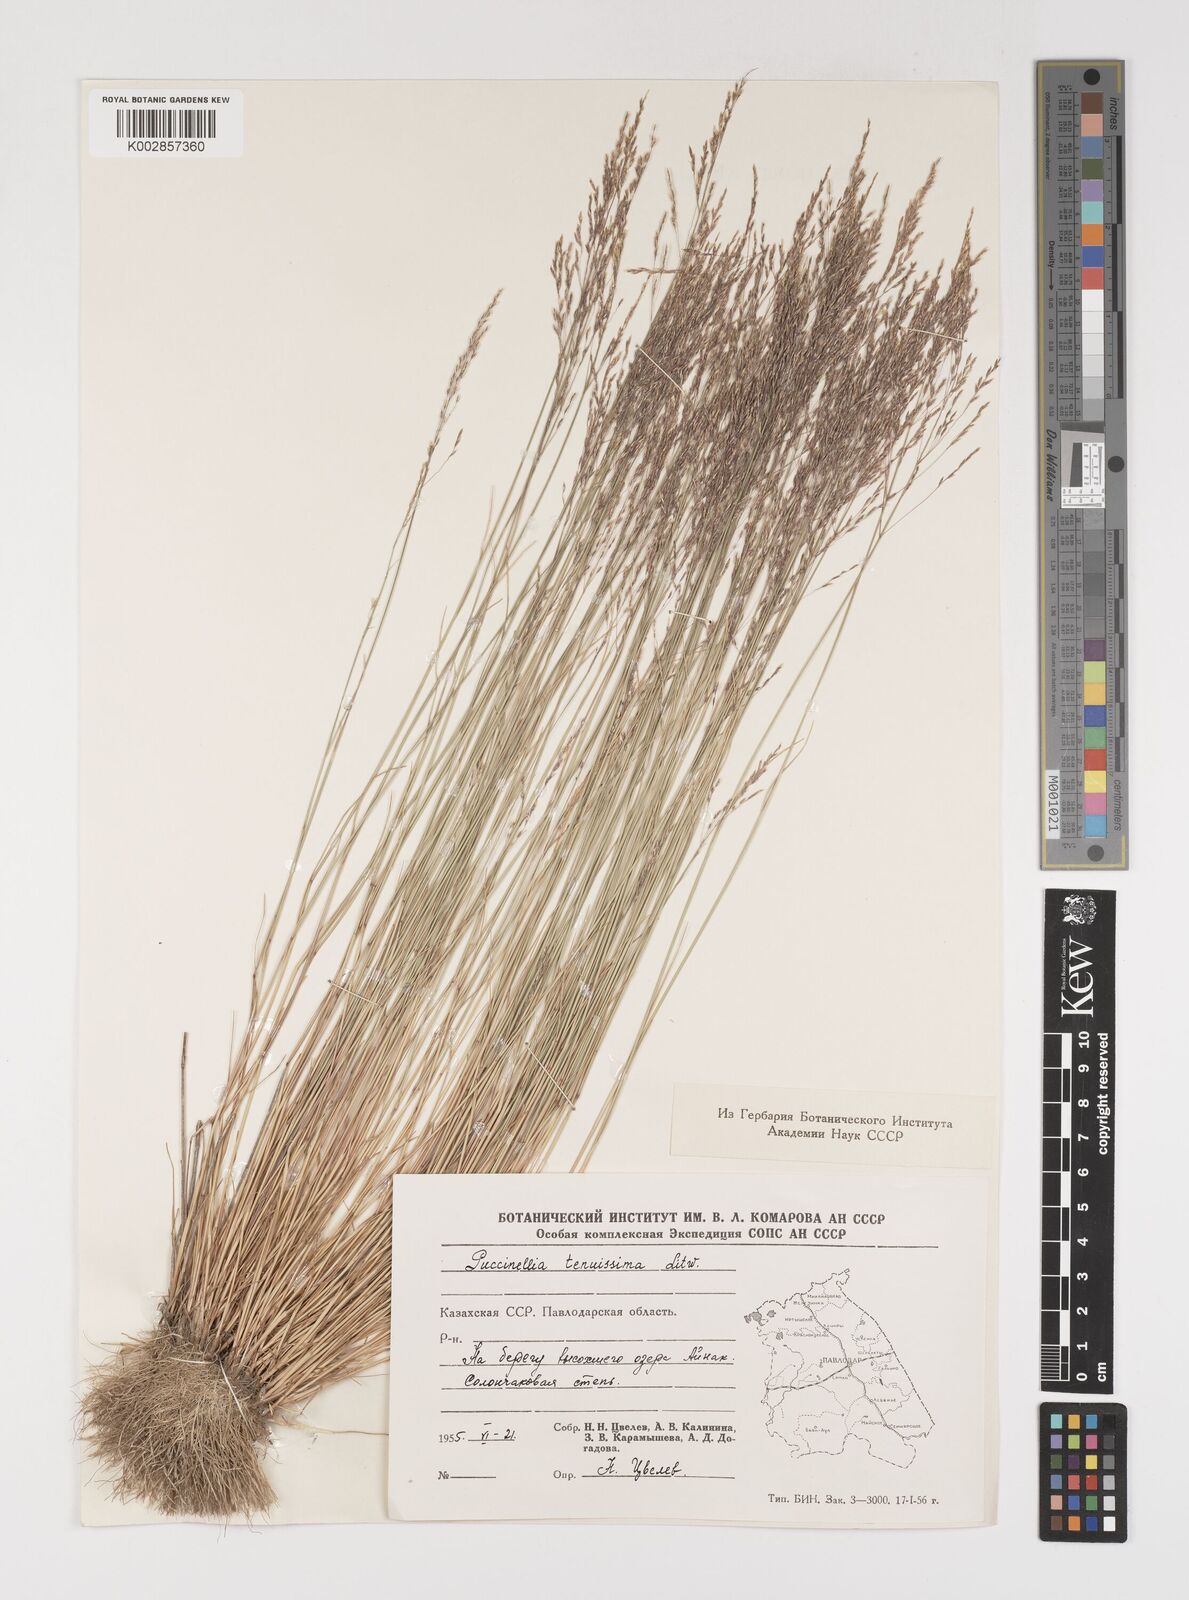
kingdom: Plantae
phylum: Tracheophyta
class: Liliopsida
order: Poales
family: Poaceae
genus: Puccinellia
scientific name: Puccinellia tenuissima
